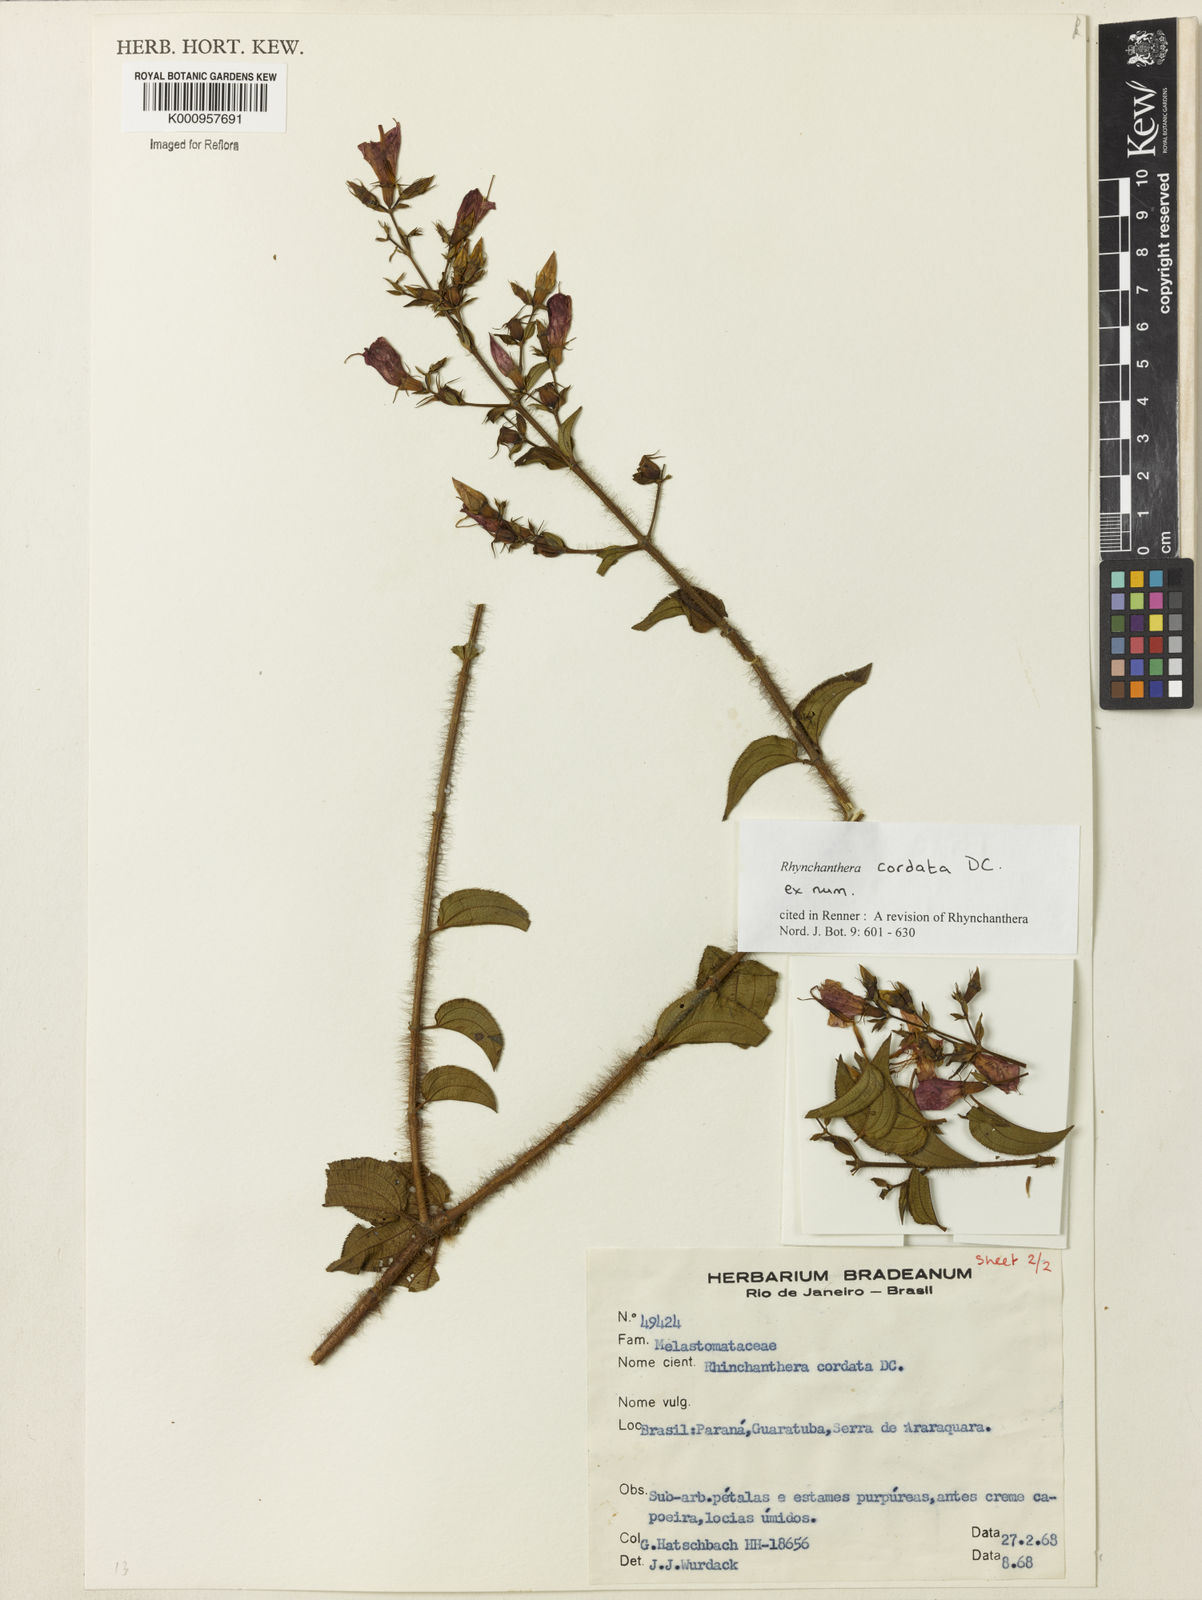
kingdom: Plantae
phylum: Tracheophyta
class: Magnoliopsida
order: Myrtales
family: Melastomataceae
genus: Rhynchanthera
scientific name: Rhynchanthera cordata
